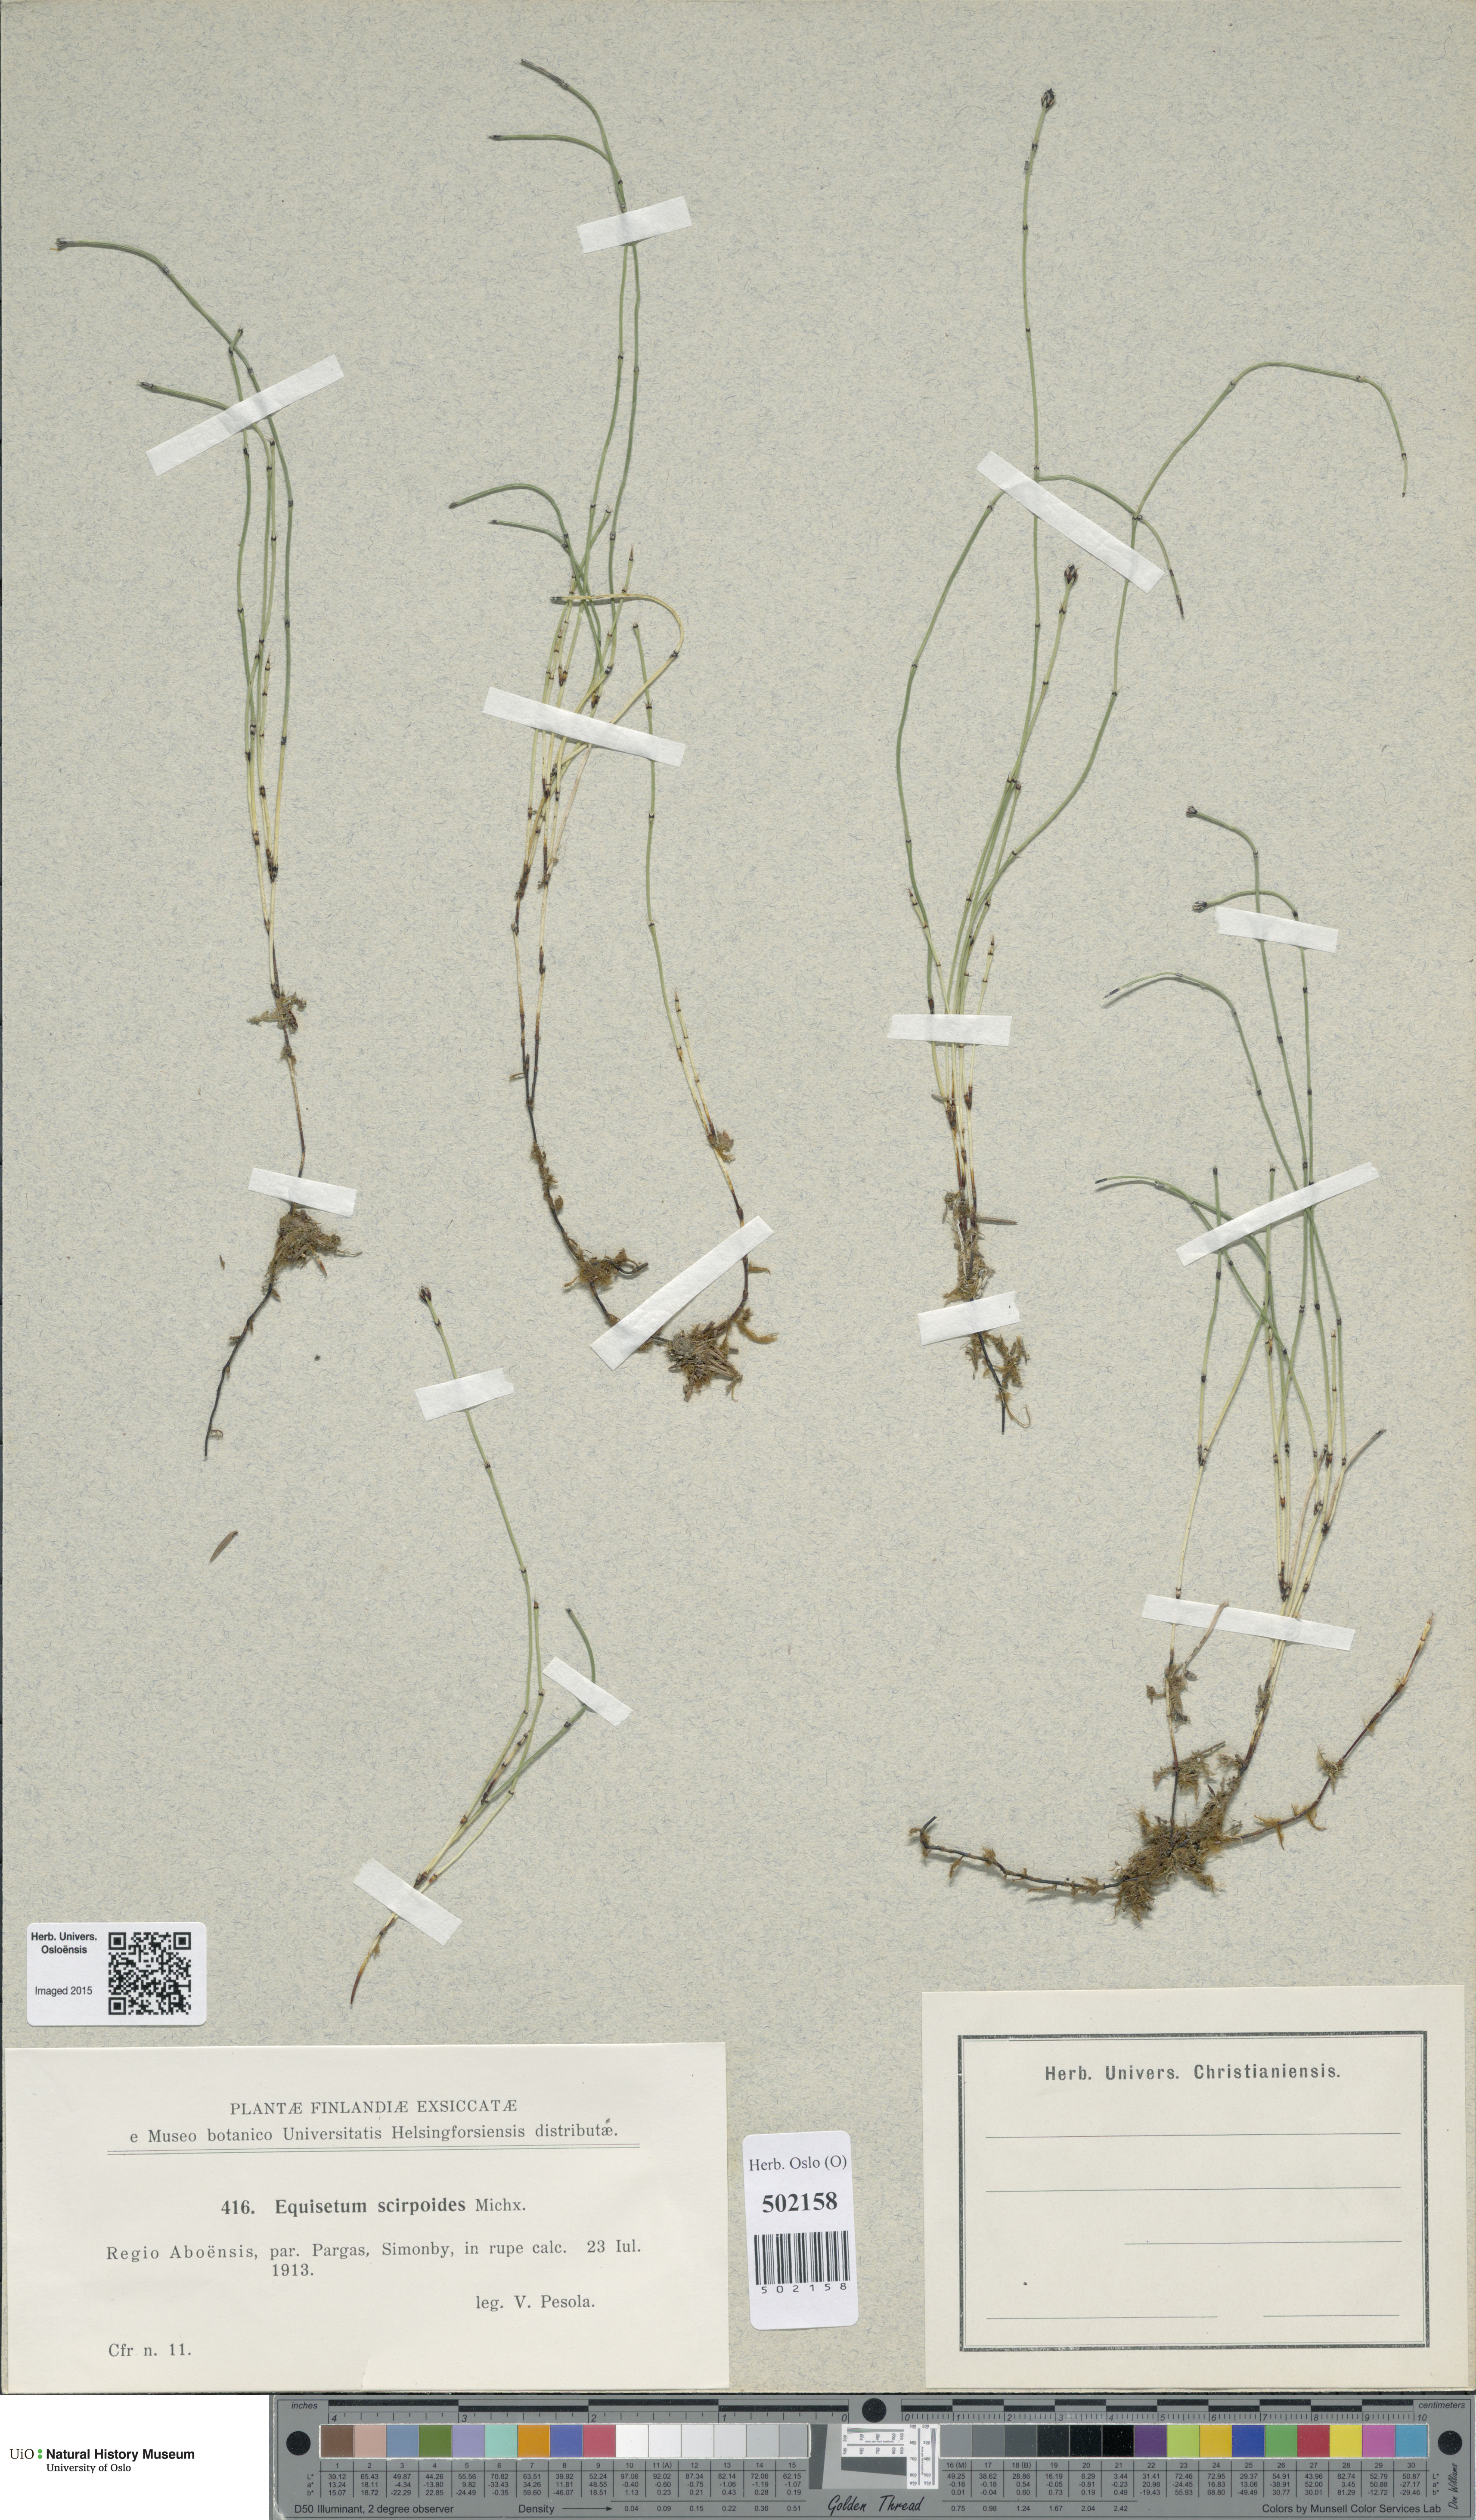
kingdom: Plantae
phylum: Tracheophyta
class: Polypodiopsida
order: Equisetales
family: Equisetaceae
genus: Equisetum
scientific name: Equisetum scirpoides
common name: Delicate horsetail
